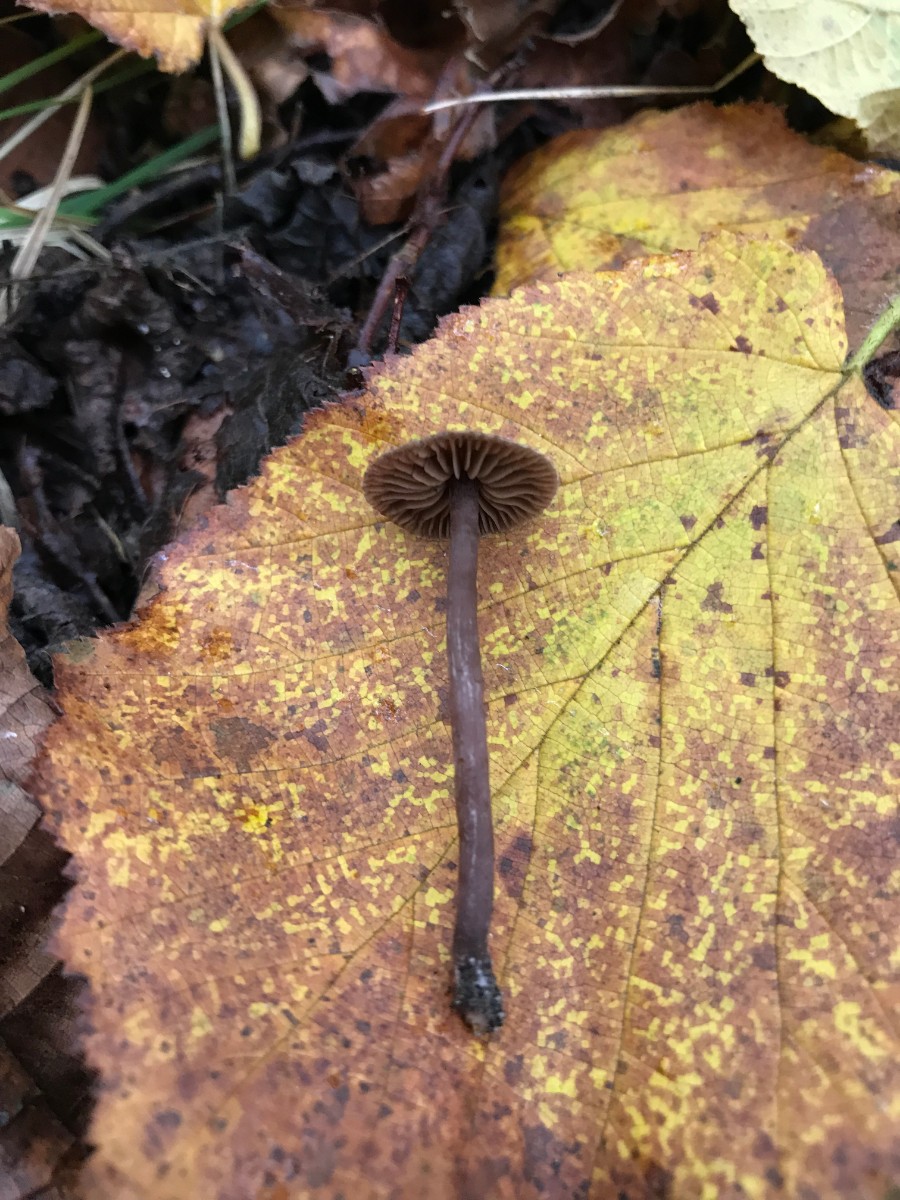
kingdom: Fungi
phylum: Basidiomycota
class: Agaricomycetes
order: Agaricales
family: Cortinariaceae
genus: Cortinarius
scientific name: Cortinarius
